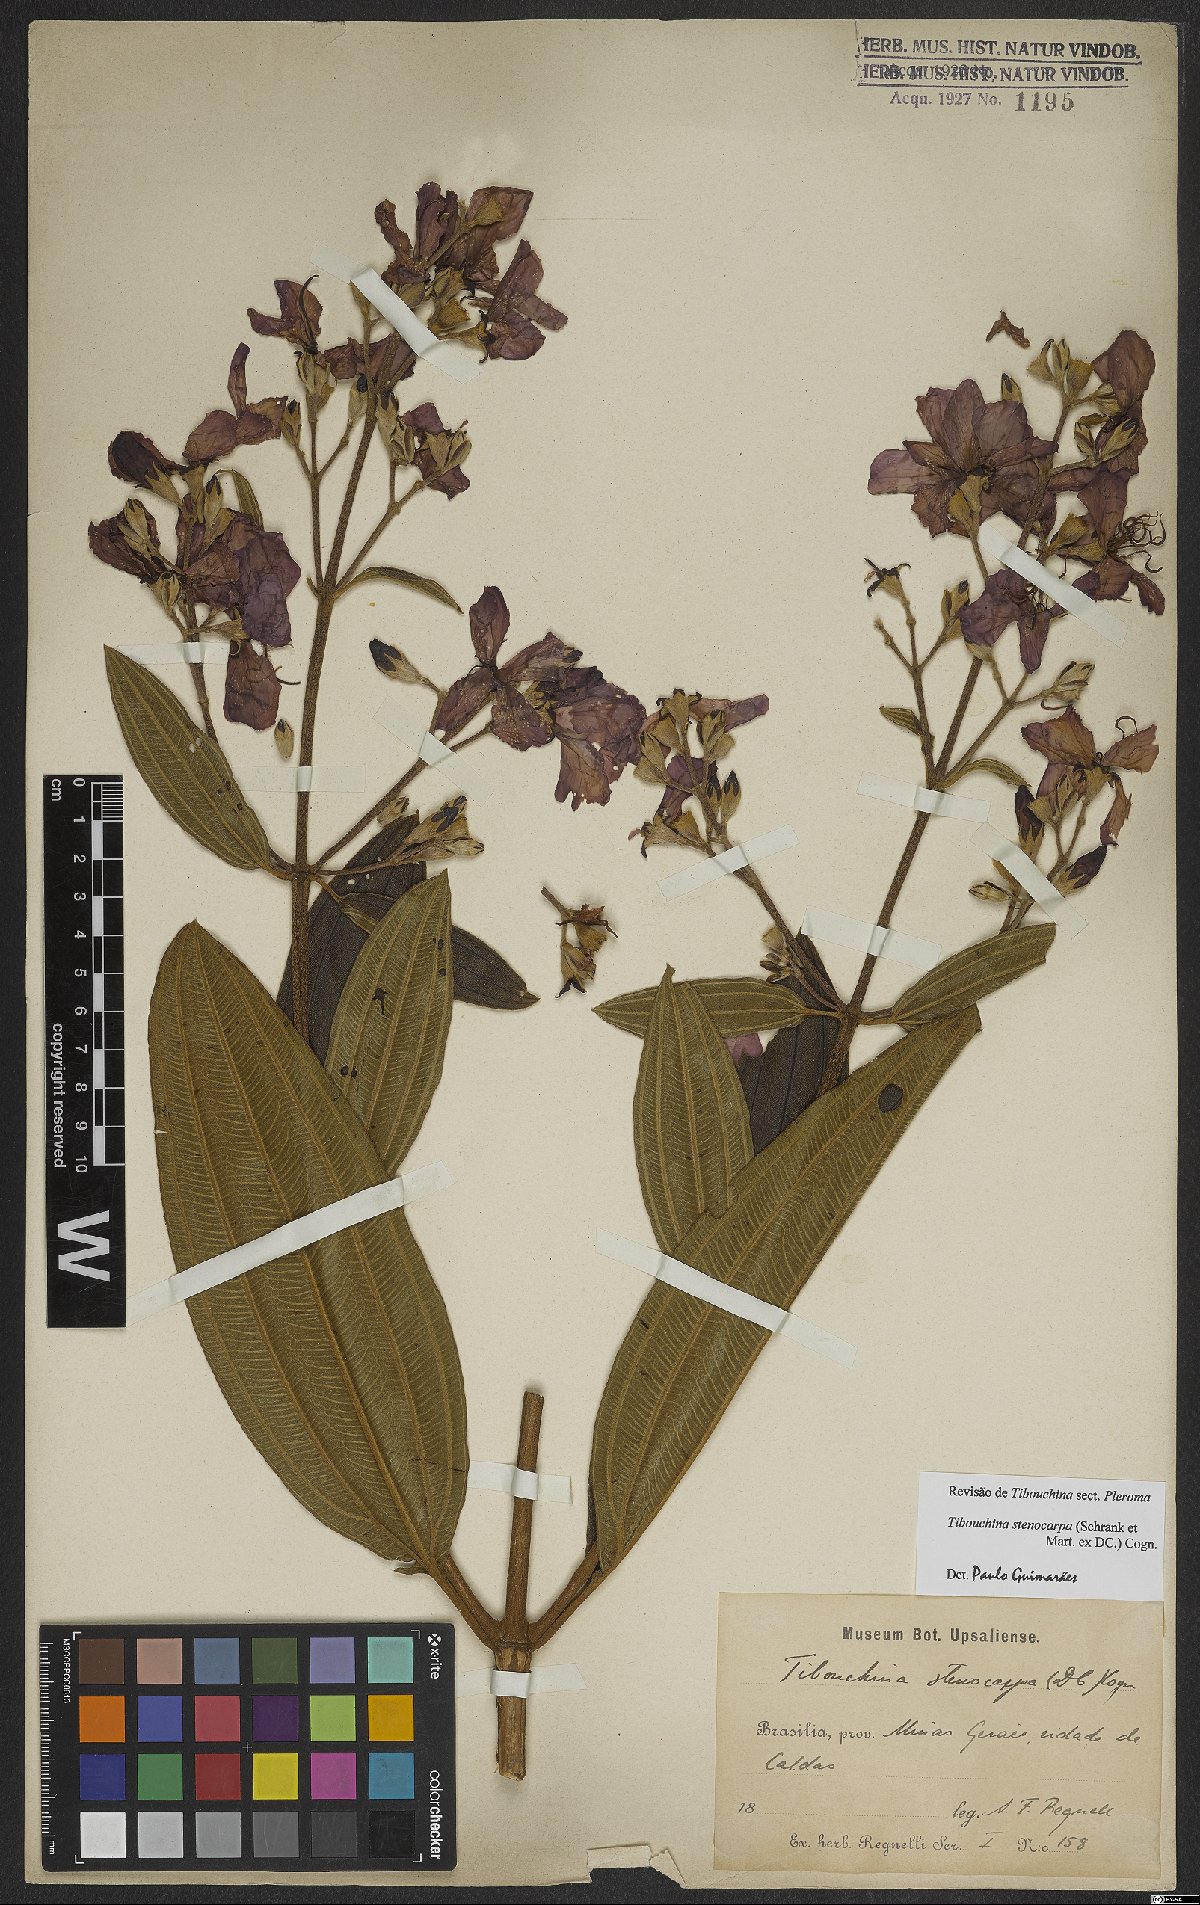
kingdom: Plantae
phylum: Tracheophyta
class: Magnoliopsida
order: Myrtales
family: Melastomataceae
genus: Pleroma
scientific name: Pleroma stenocarpum
